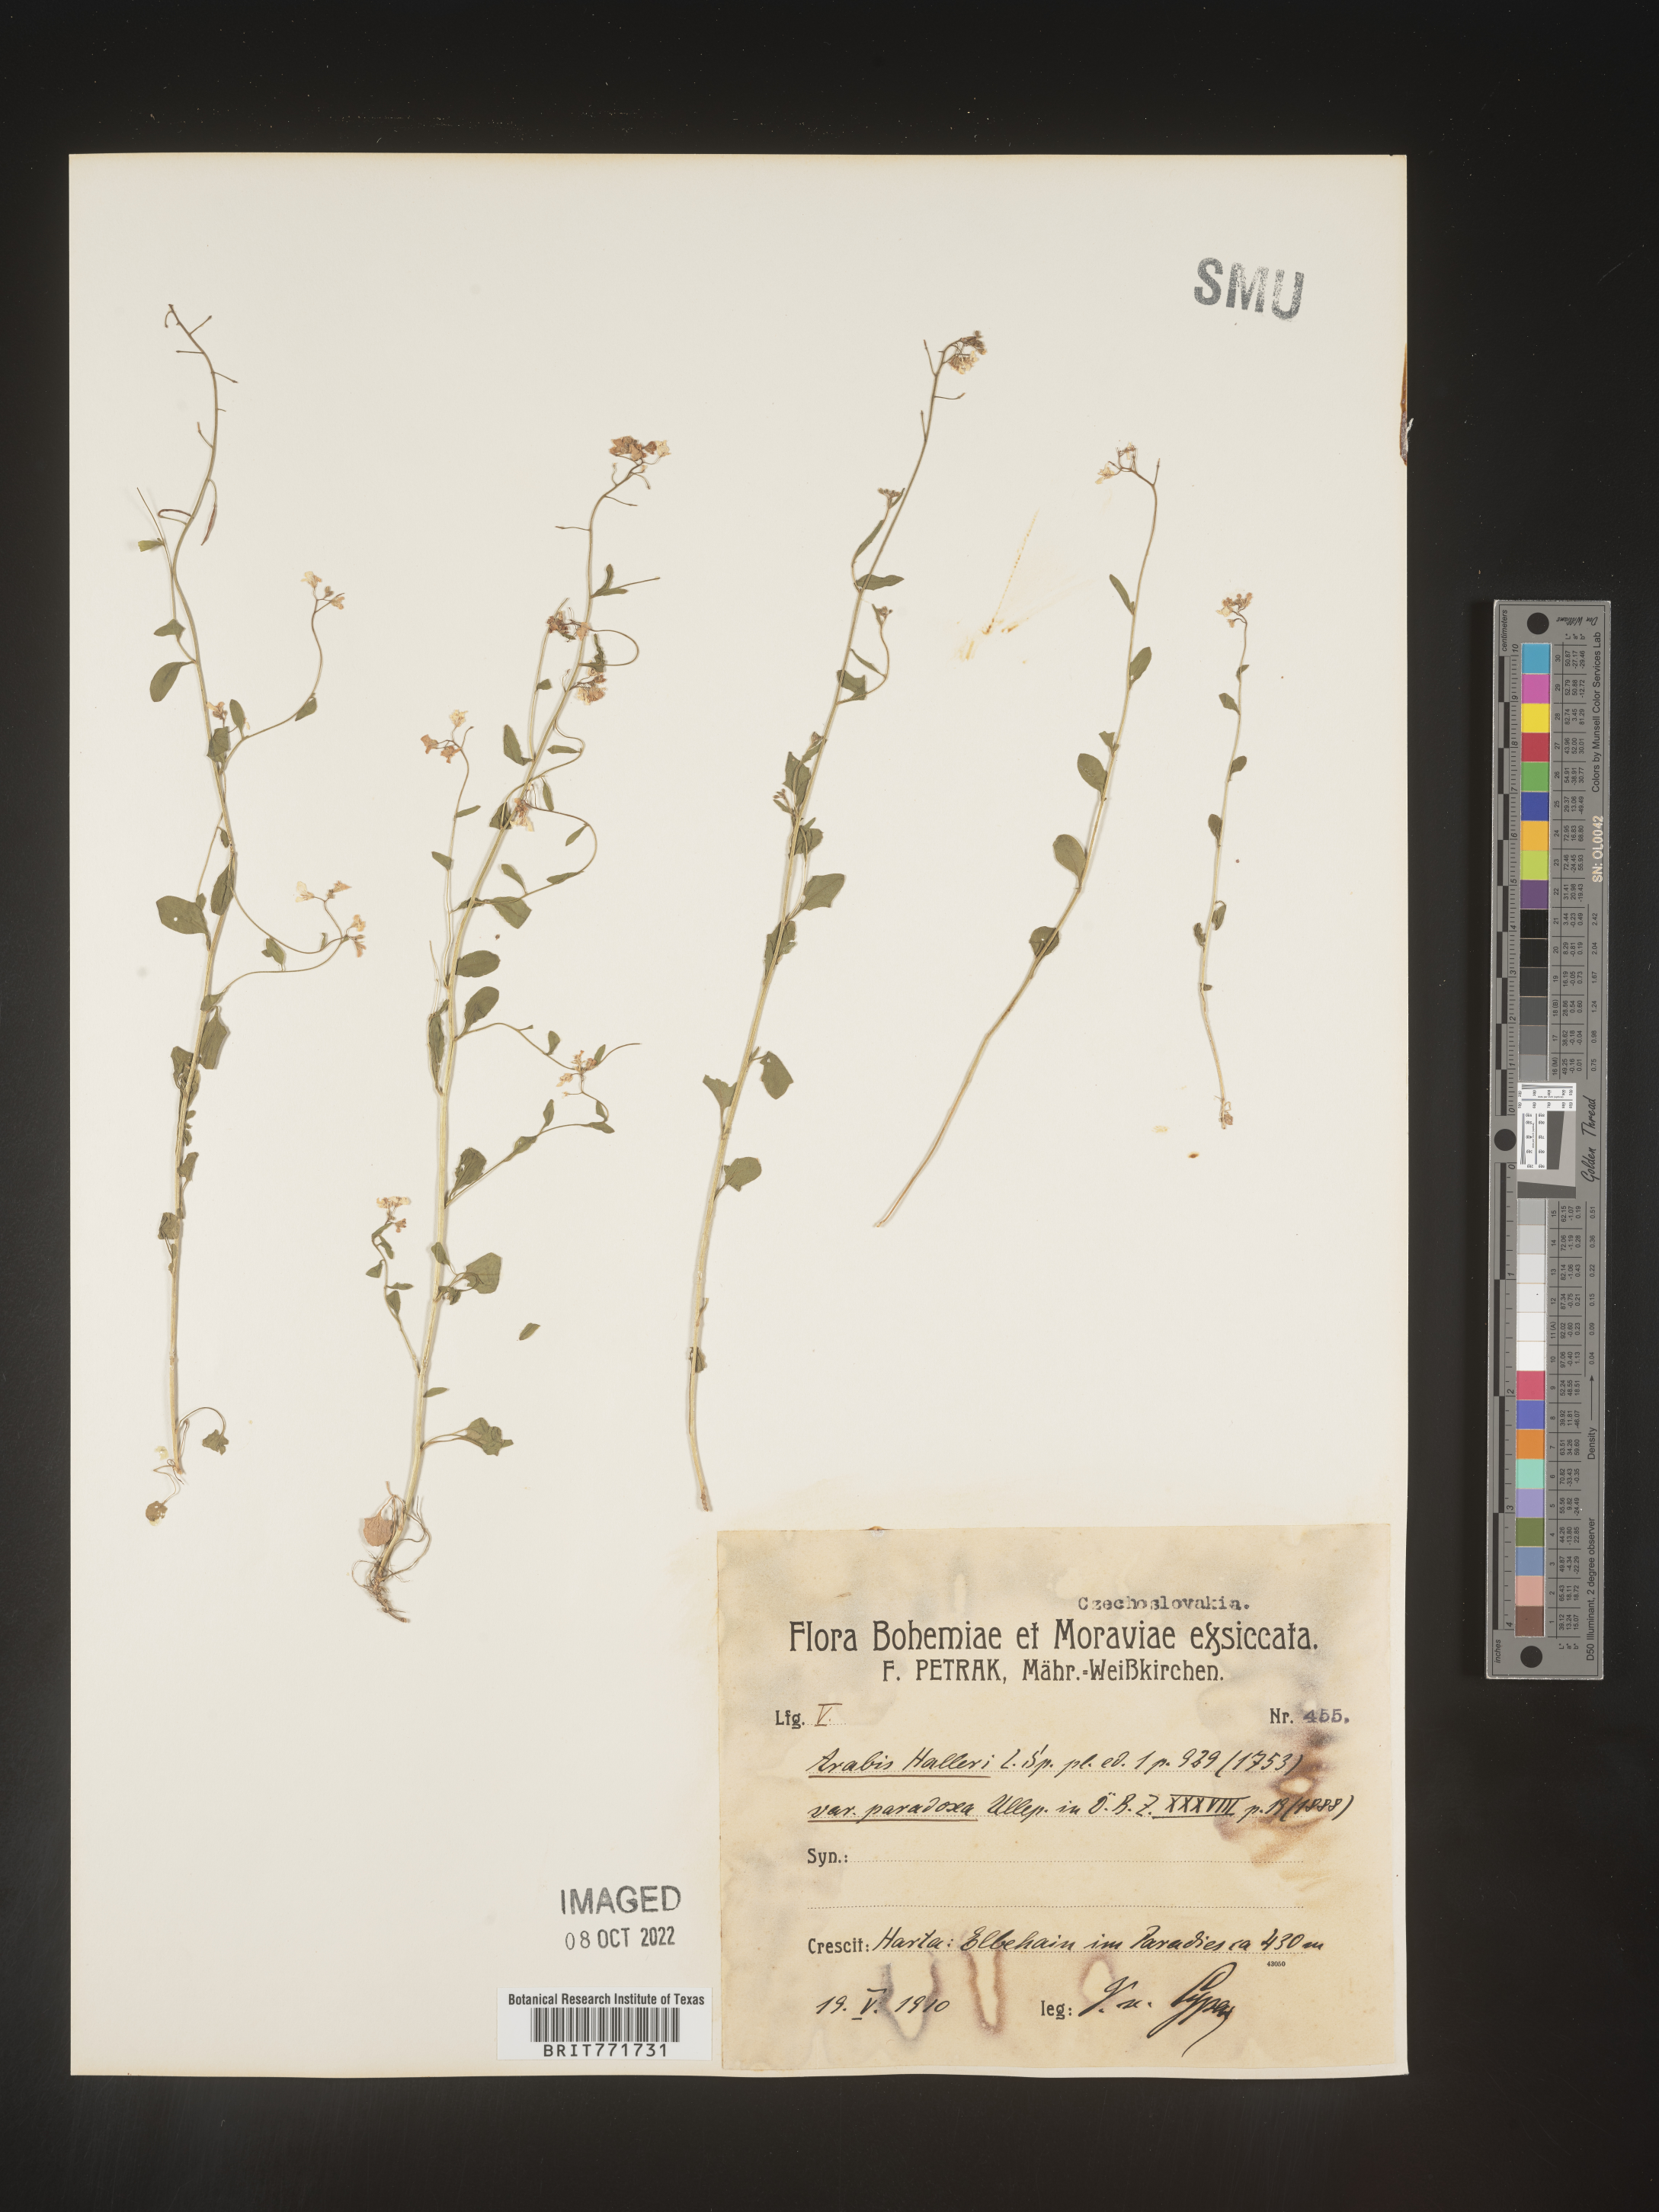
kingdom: Plantae
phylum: Tracheophyta
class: Magnoliopsida
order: Brassicales
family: Brassicaceae
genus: Arabis
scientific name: Arabis
